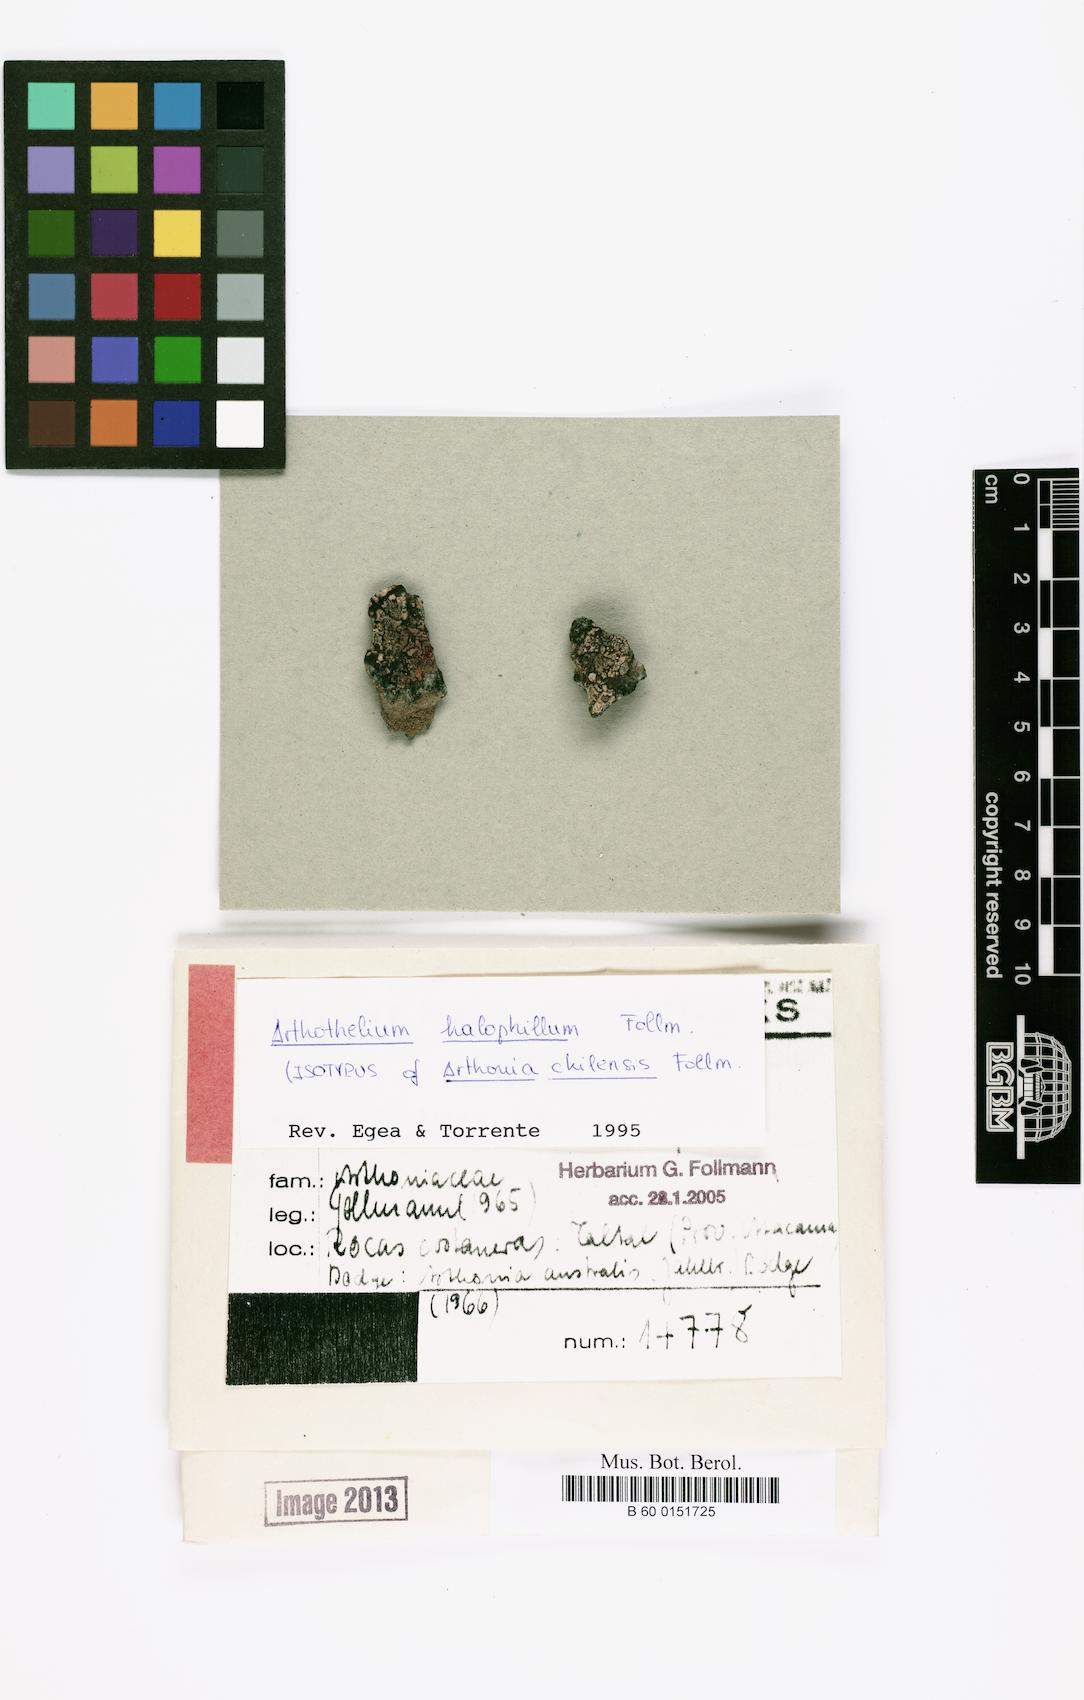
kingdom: Fungi
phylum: Ascomycota
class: Arthoniomycetes
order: Arthoniales
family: Arthoniaceae
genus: Arthonia
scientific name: Arthonia
